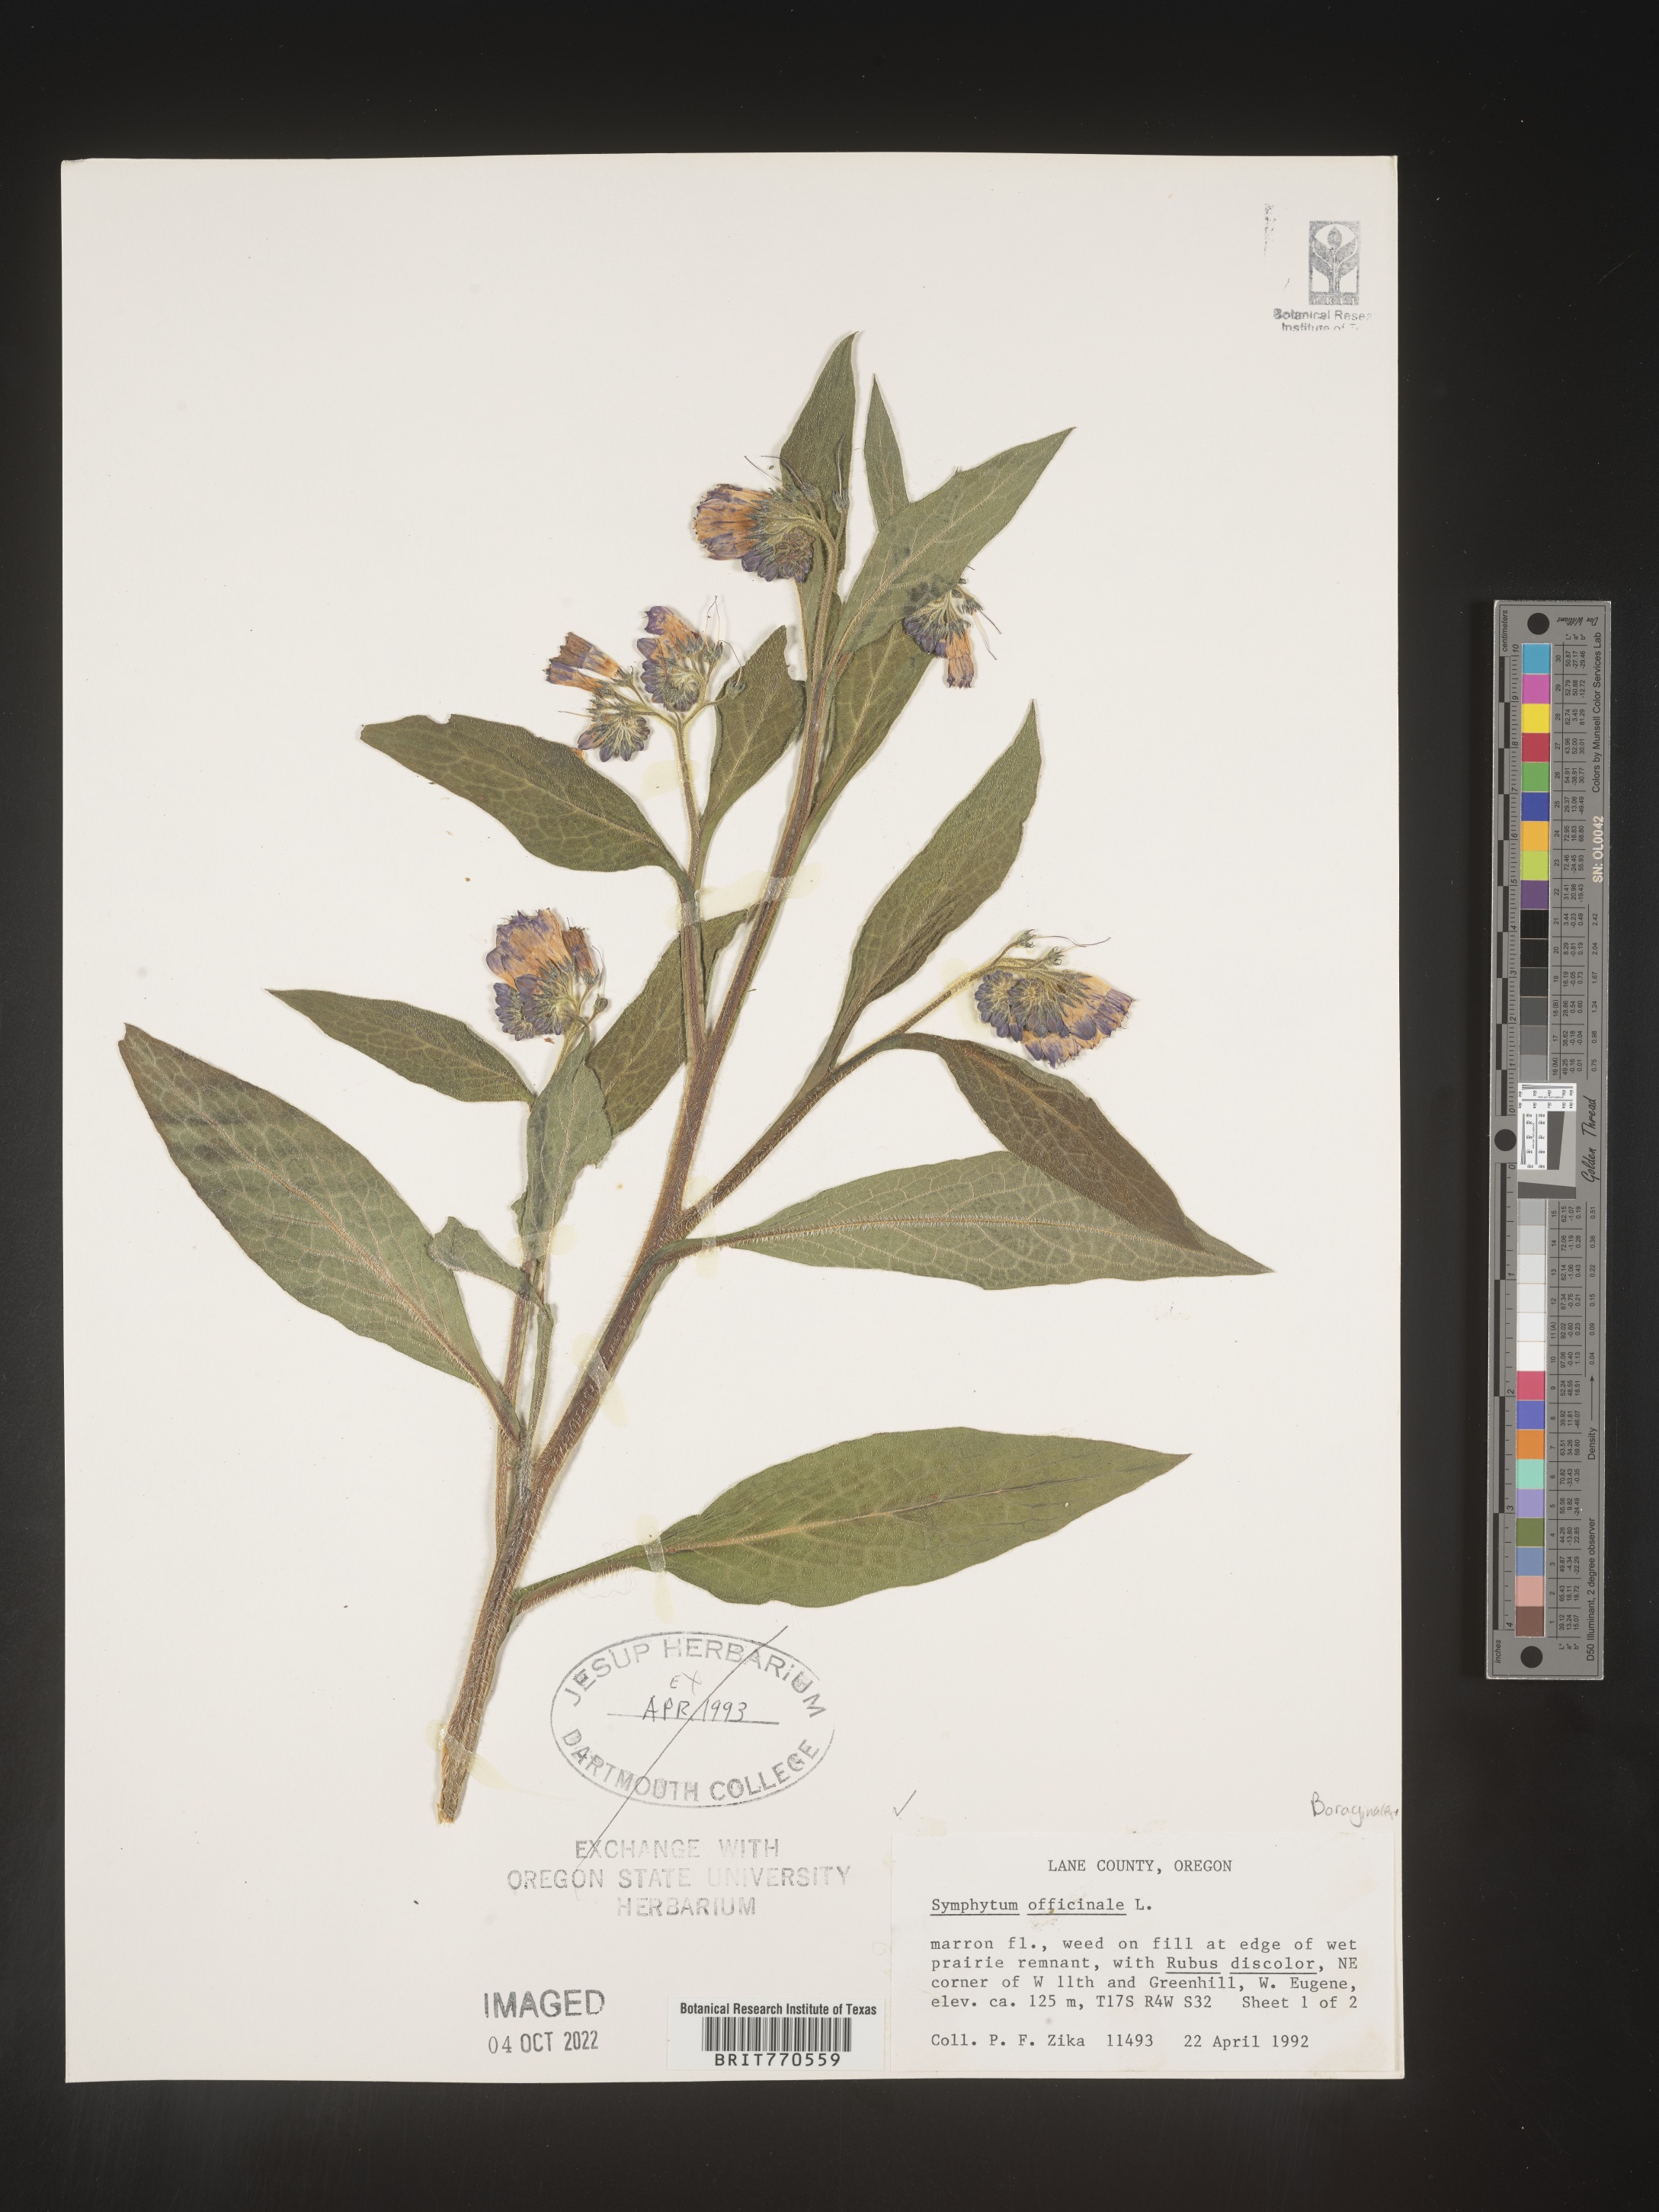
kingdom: Plantae
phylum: Tracheophyta
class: Magnoliopsida
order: Boraginales
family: Boraginaceae
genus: Symphytum
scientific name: Symphytum
